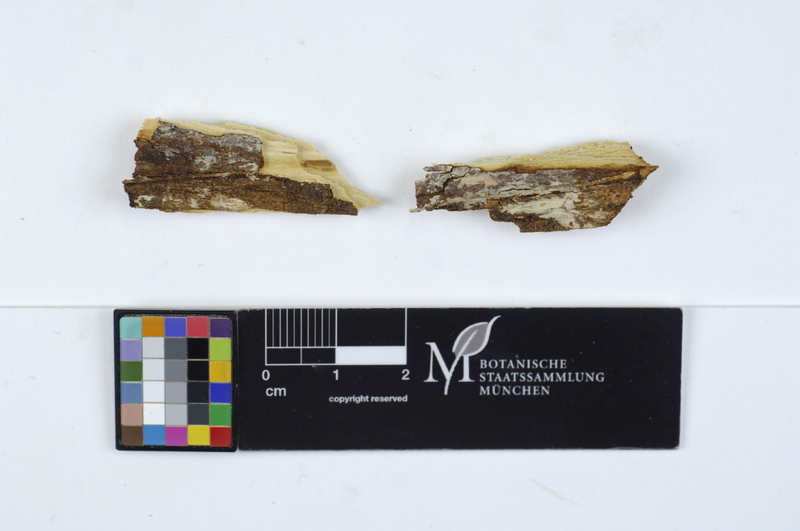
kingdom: Fungi
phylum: Basidiomycota
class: Agaricomycetes
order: Russulales
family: Stereaceae
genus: Gloeocystidiellum
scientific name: Gloeocystidiellum porosellum
